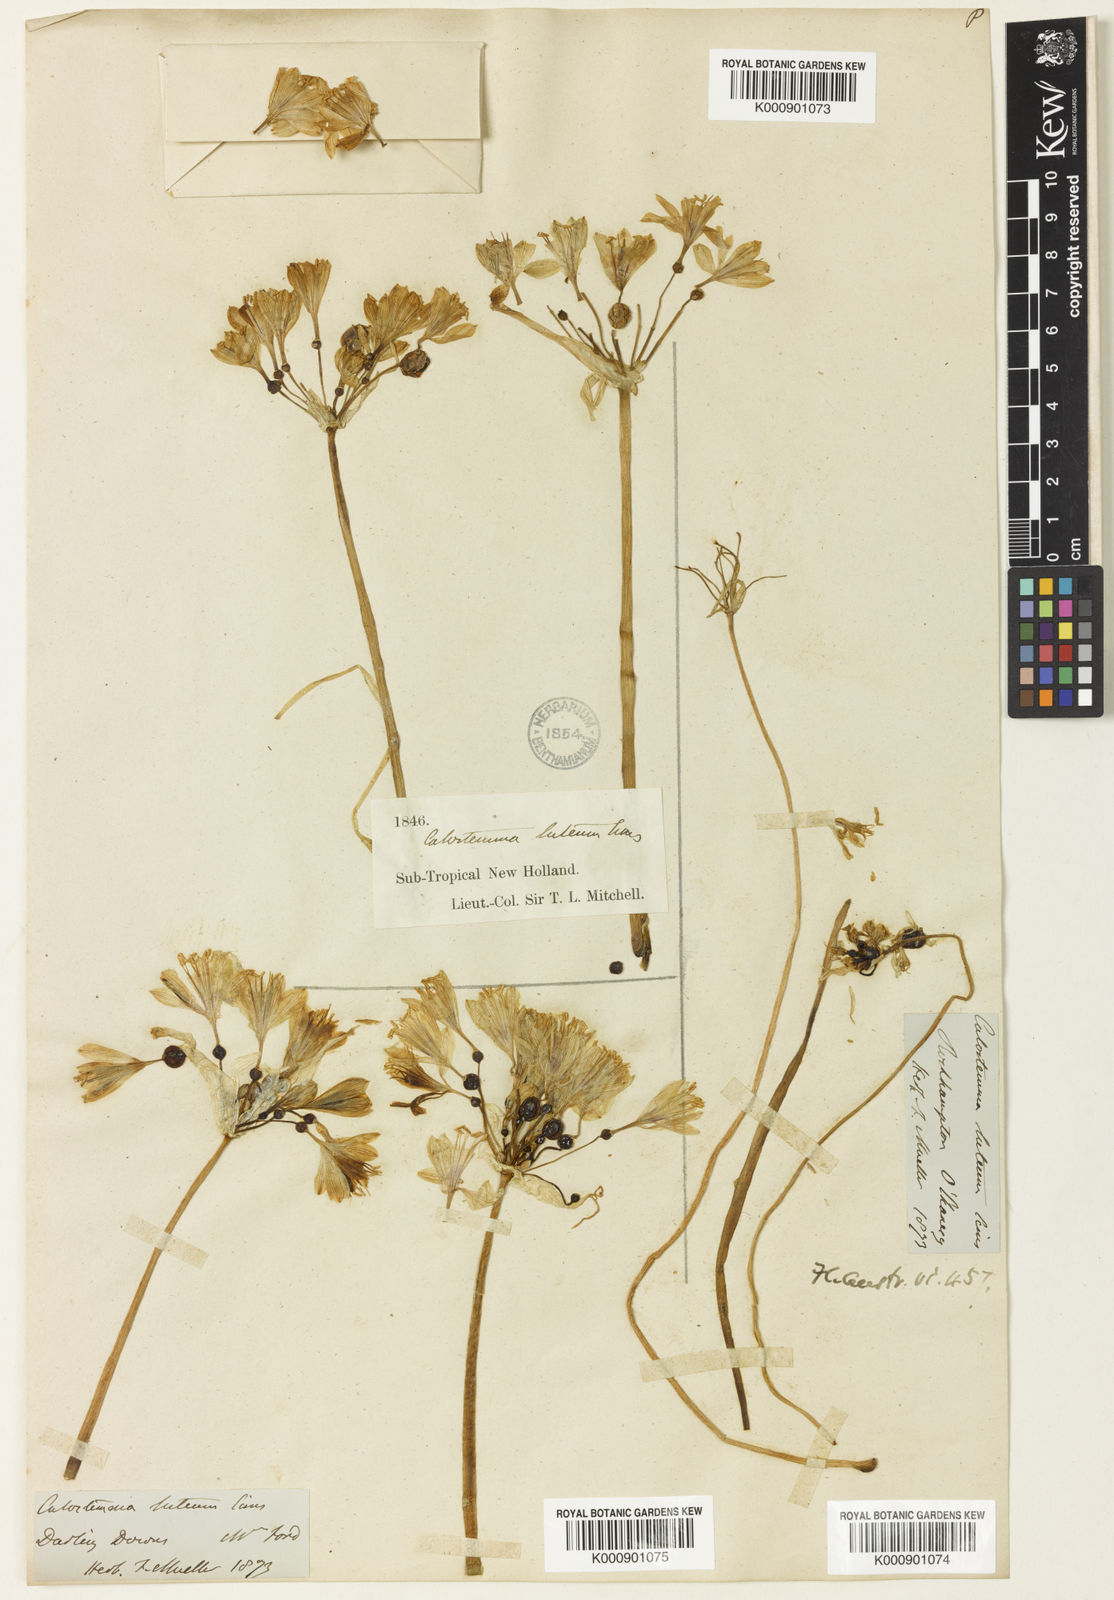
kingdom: Plantae
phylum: Tracheophyta
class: Liliopsida
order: Asparagales
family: Amaryllidaceae
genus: Calostemma
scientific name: Calostemma luteum
